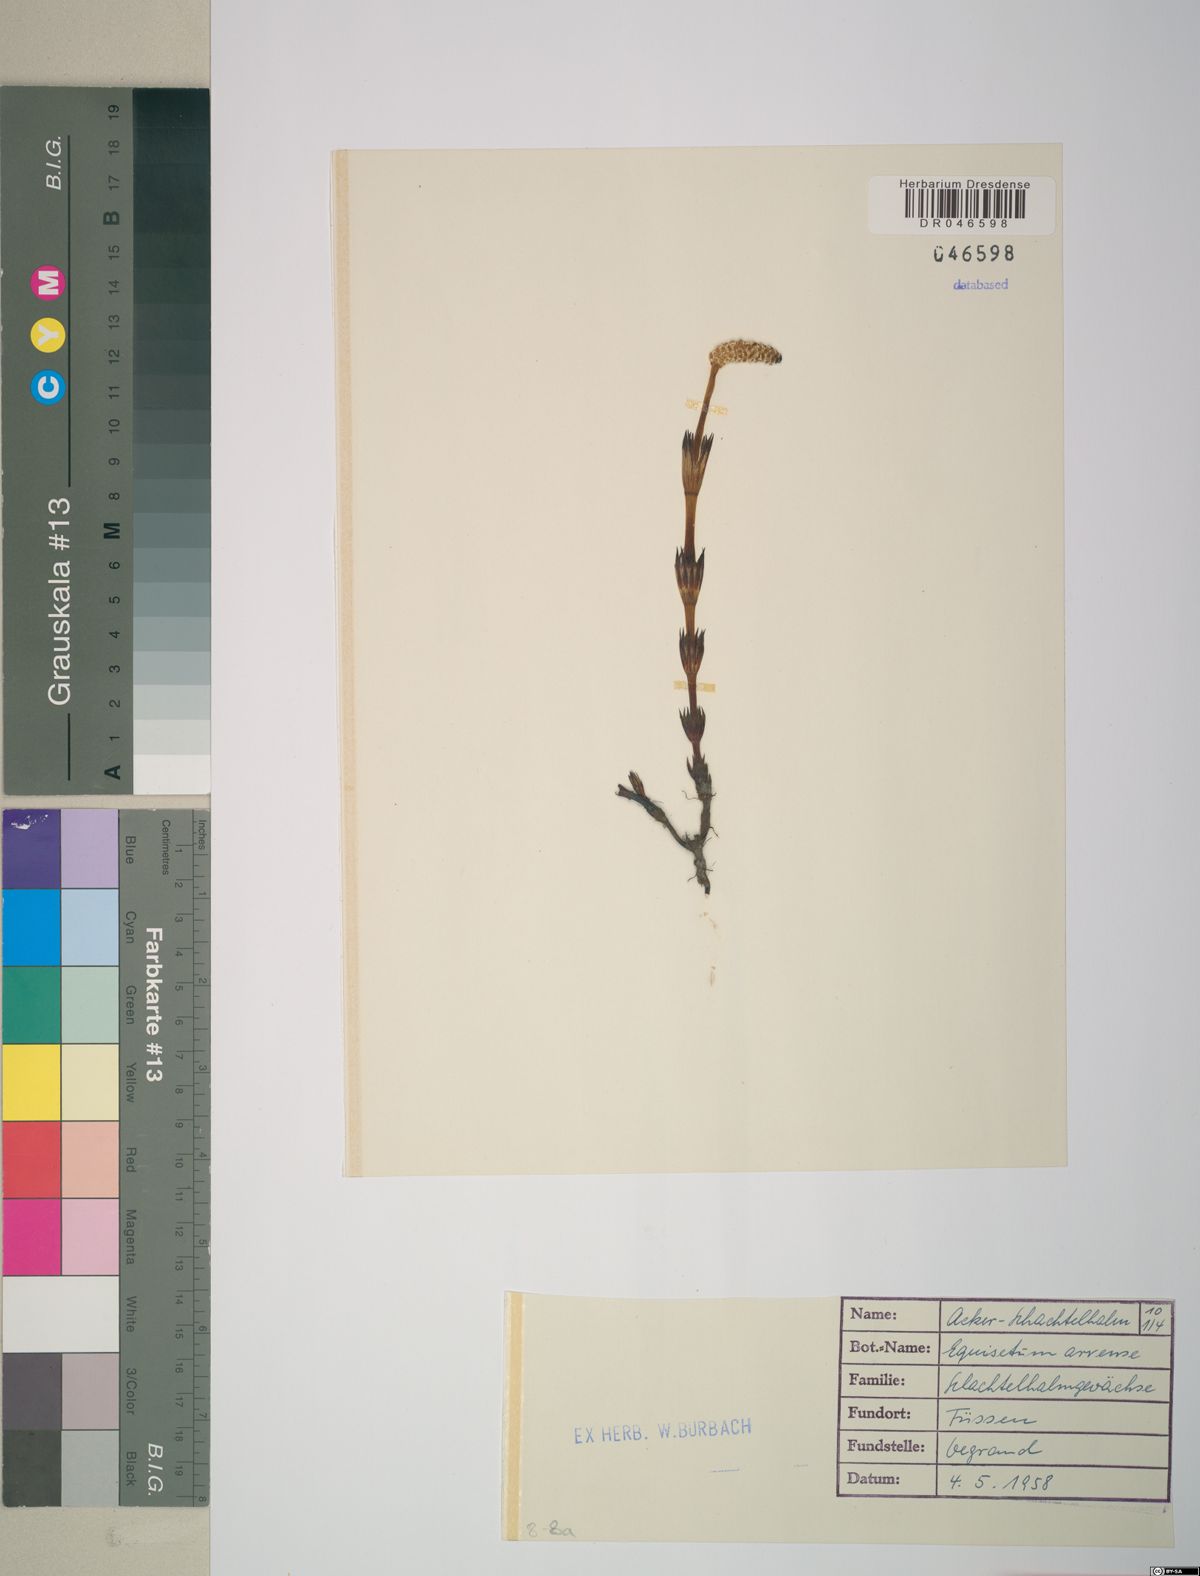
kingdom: Plantae
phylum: Tracheophyta
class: Polypodiopsida
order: Equisetales
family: Equisetaceae
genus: Equisetum
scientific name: Equisetum arvense
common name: Field horsetail
